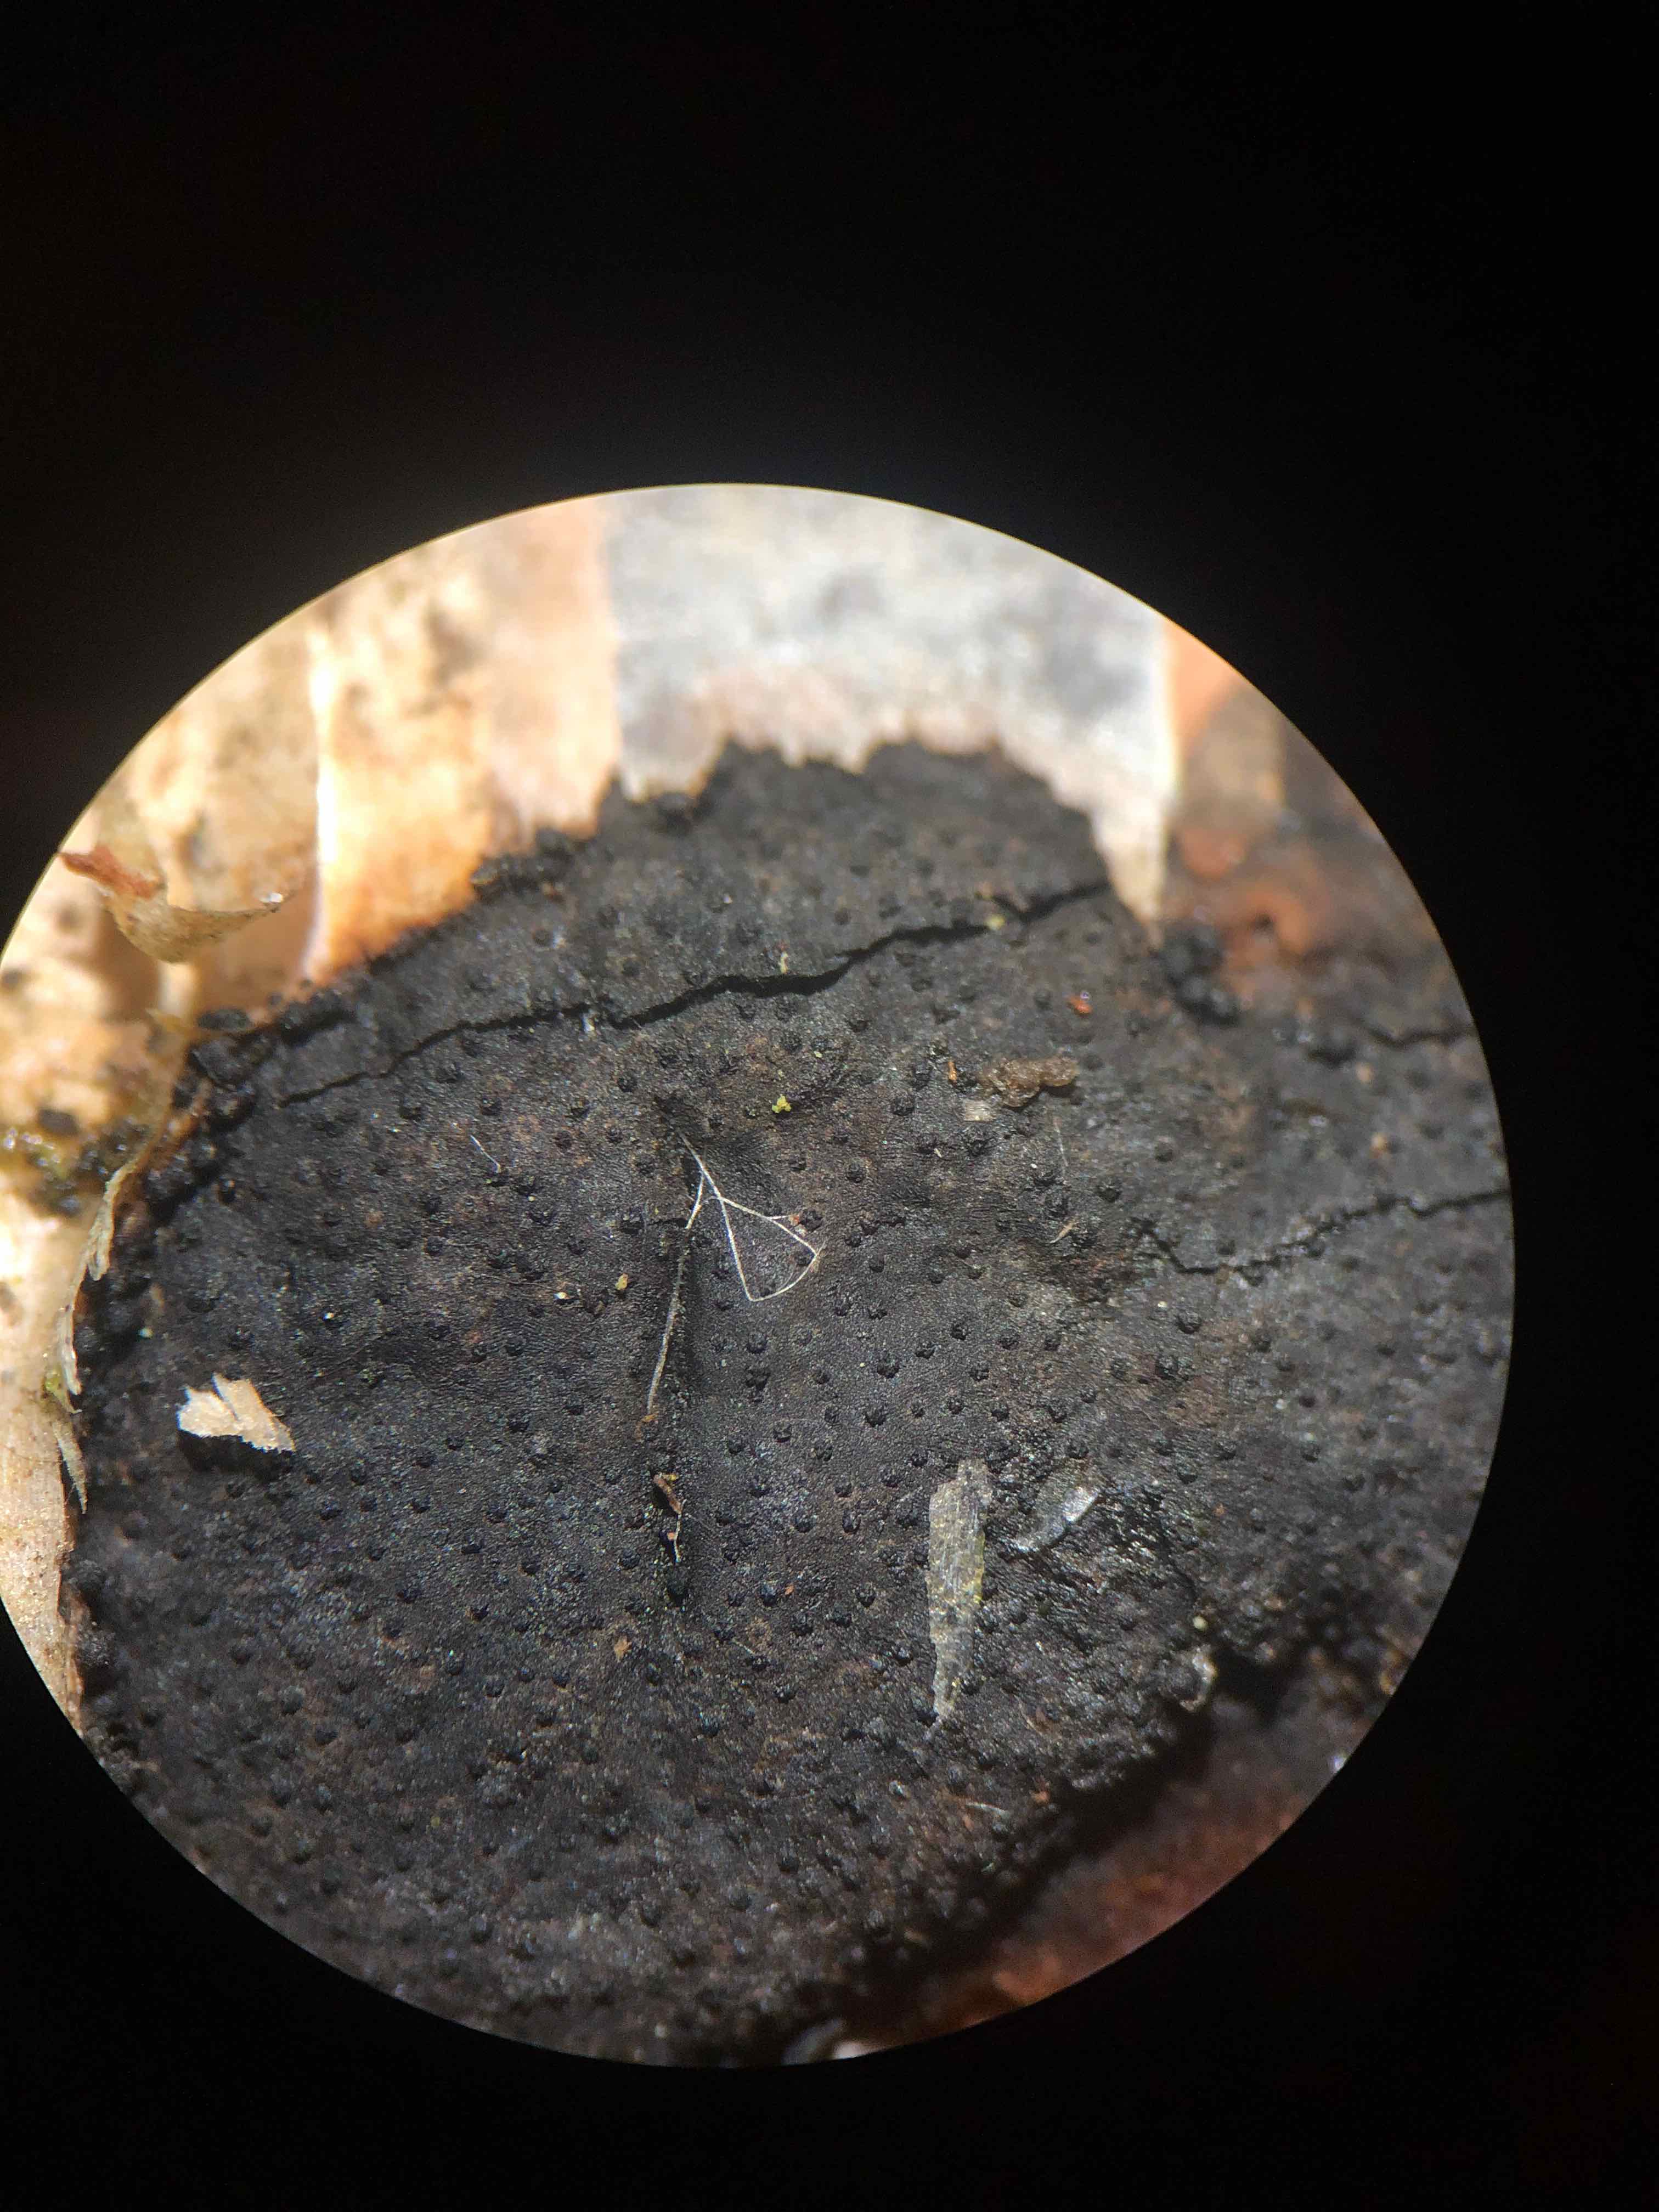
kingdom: Fungi
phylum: Ascomycota
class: Sordariomycetes
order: Xylariales
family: Diatrypaceae
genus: Diatrype
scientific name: Diatrype
